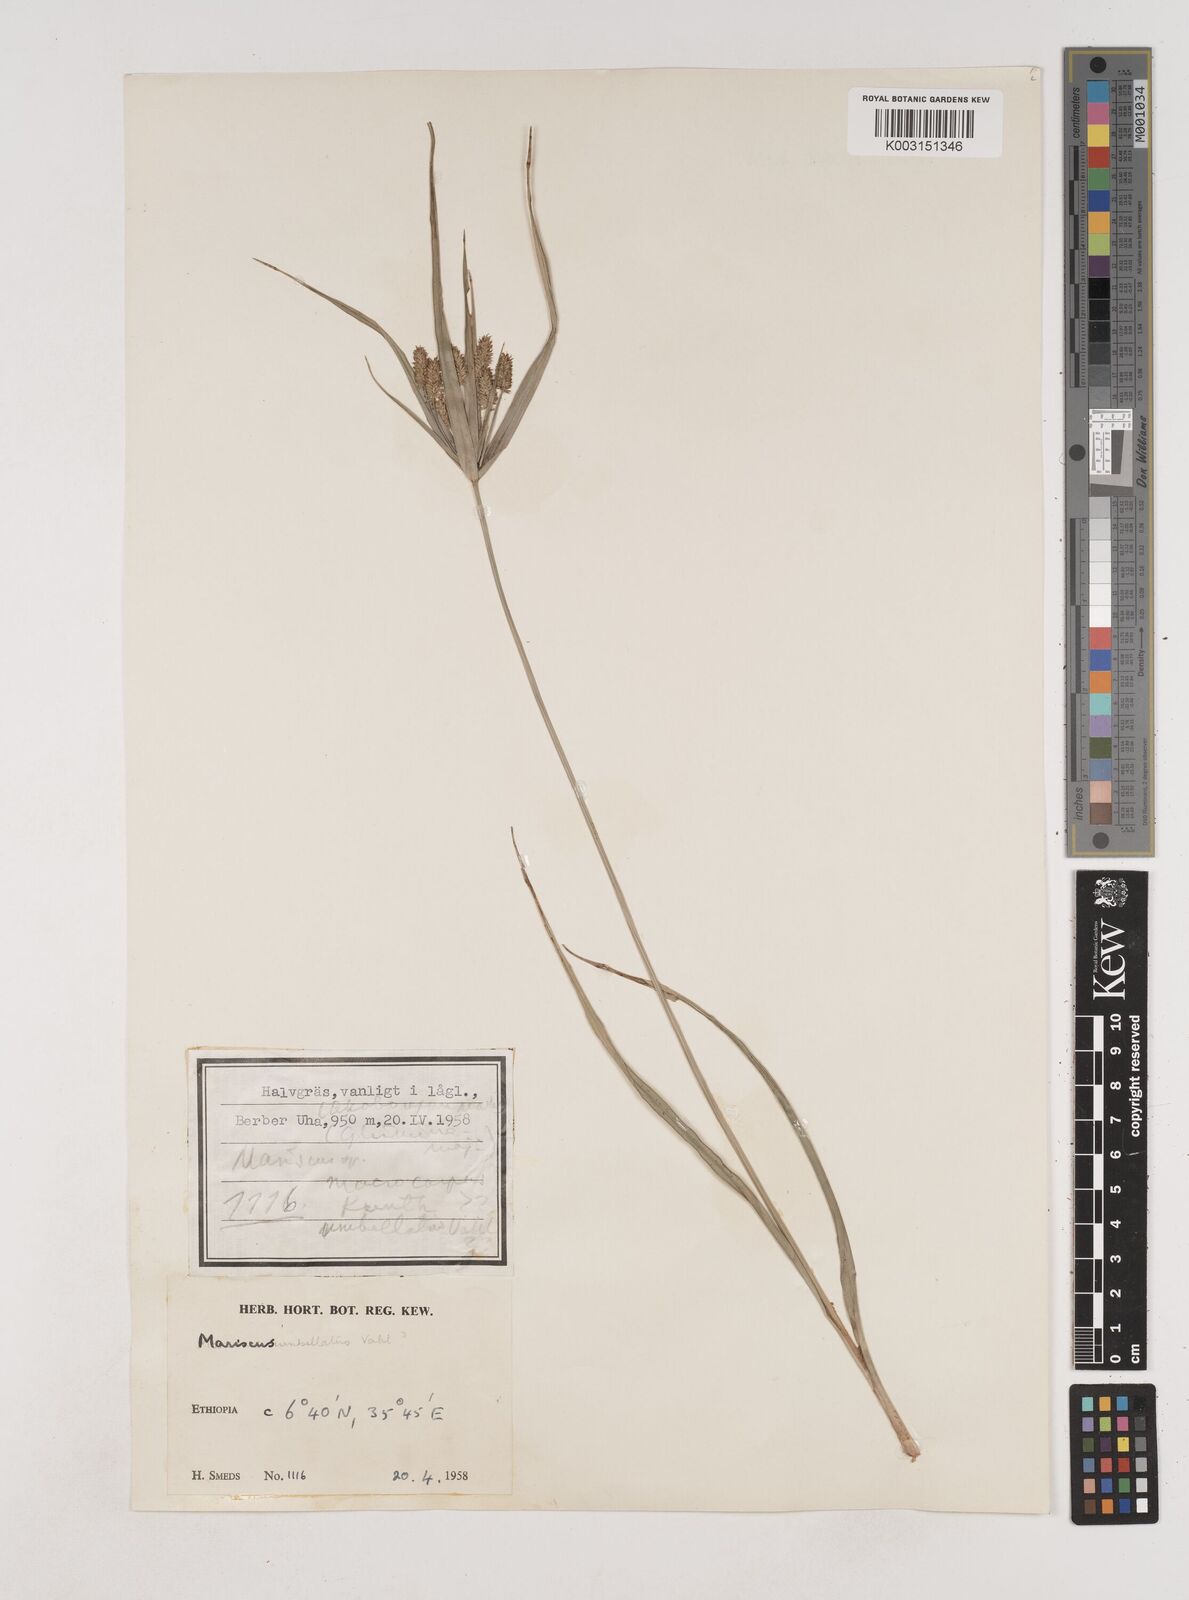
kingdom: Plantae
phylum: Tracheophyta
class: Liliopsida
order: Poales
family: Cyperaceae
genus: Cyperus
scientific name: Cyperus cyperoides
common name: Pacific island flat sedge
